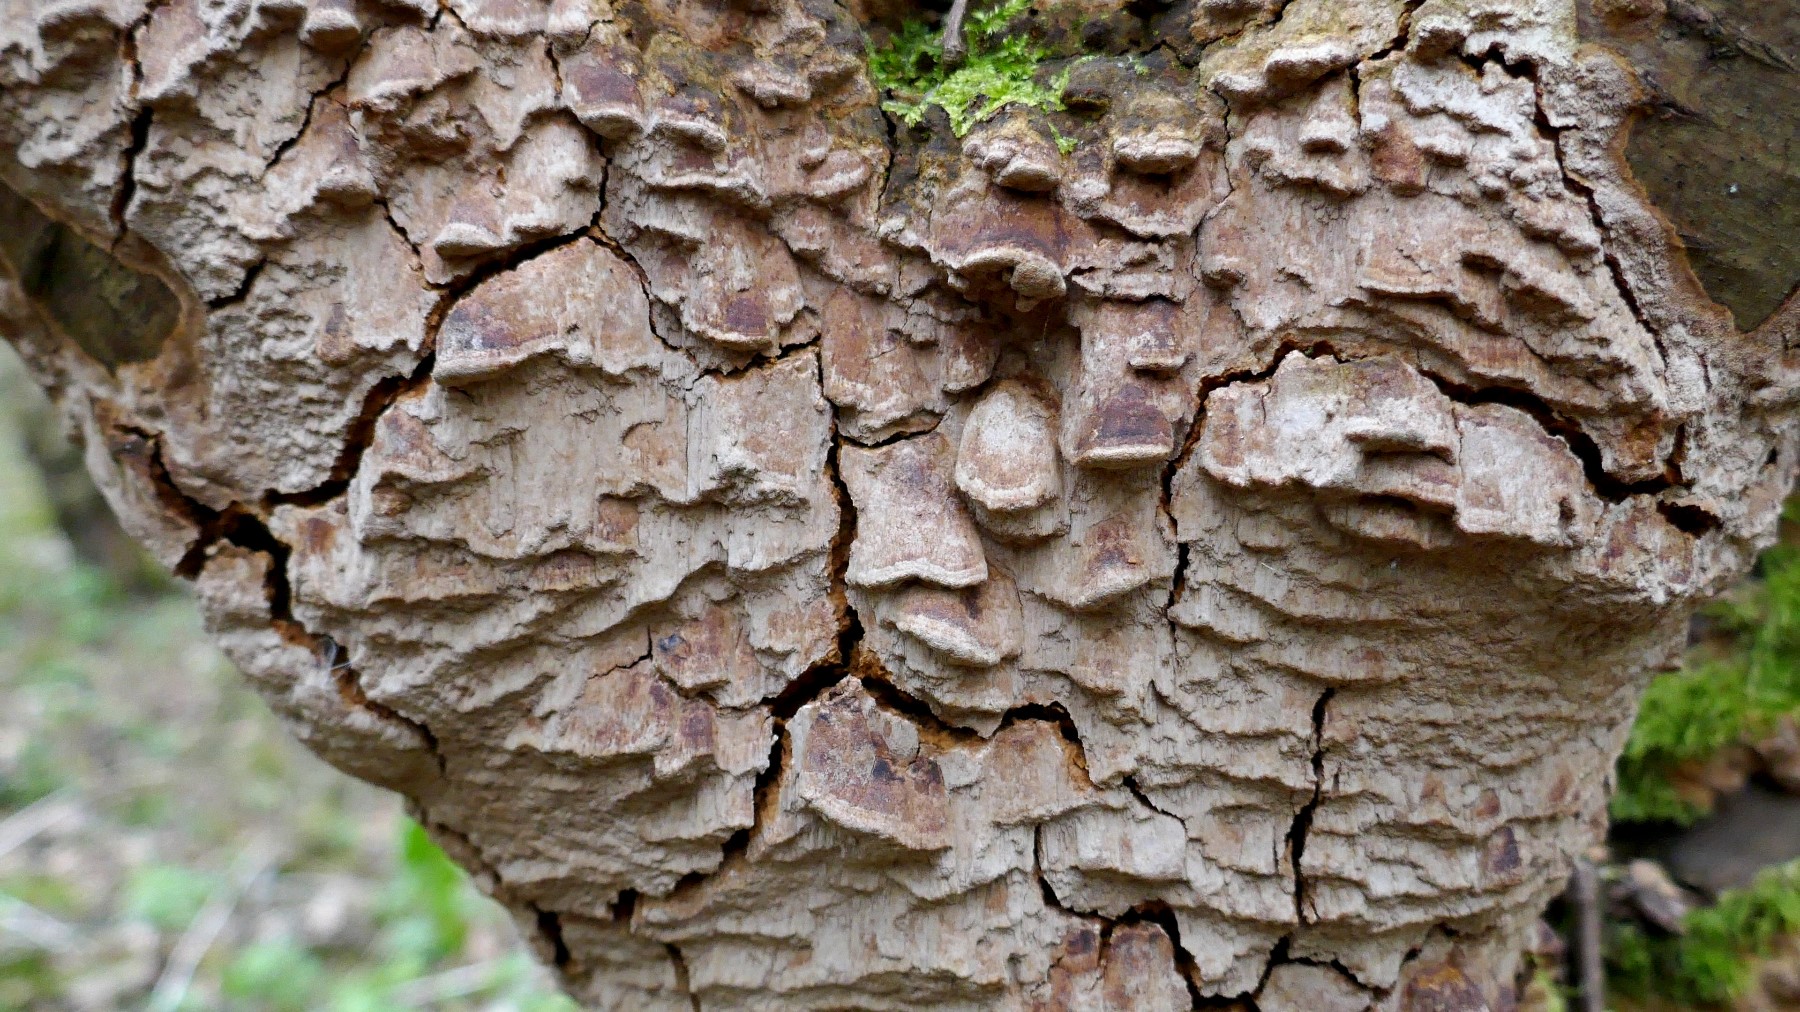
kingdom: Fungi
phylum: Basidiomycota
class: Agaricomycetes
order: Hymenochaetales
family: Hymenochaetaceae
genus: Fuscoporia
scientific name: Fuscoporia ferrea
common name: skorpe-ildporesvamp
